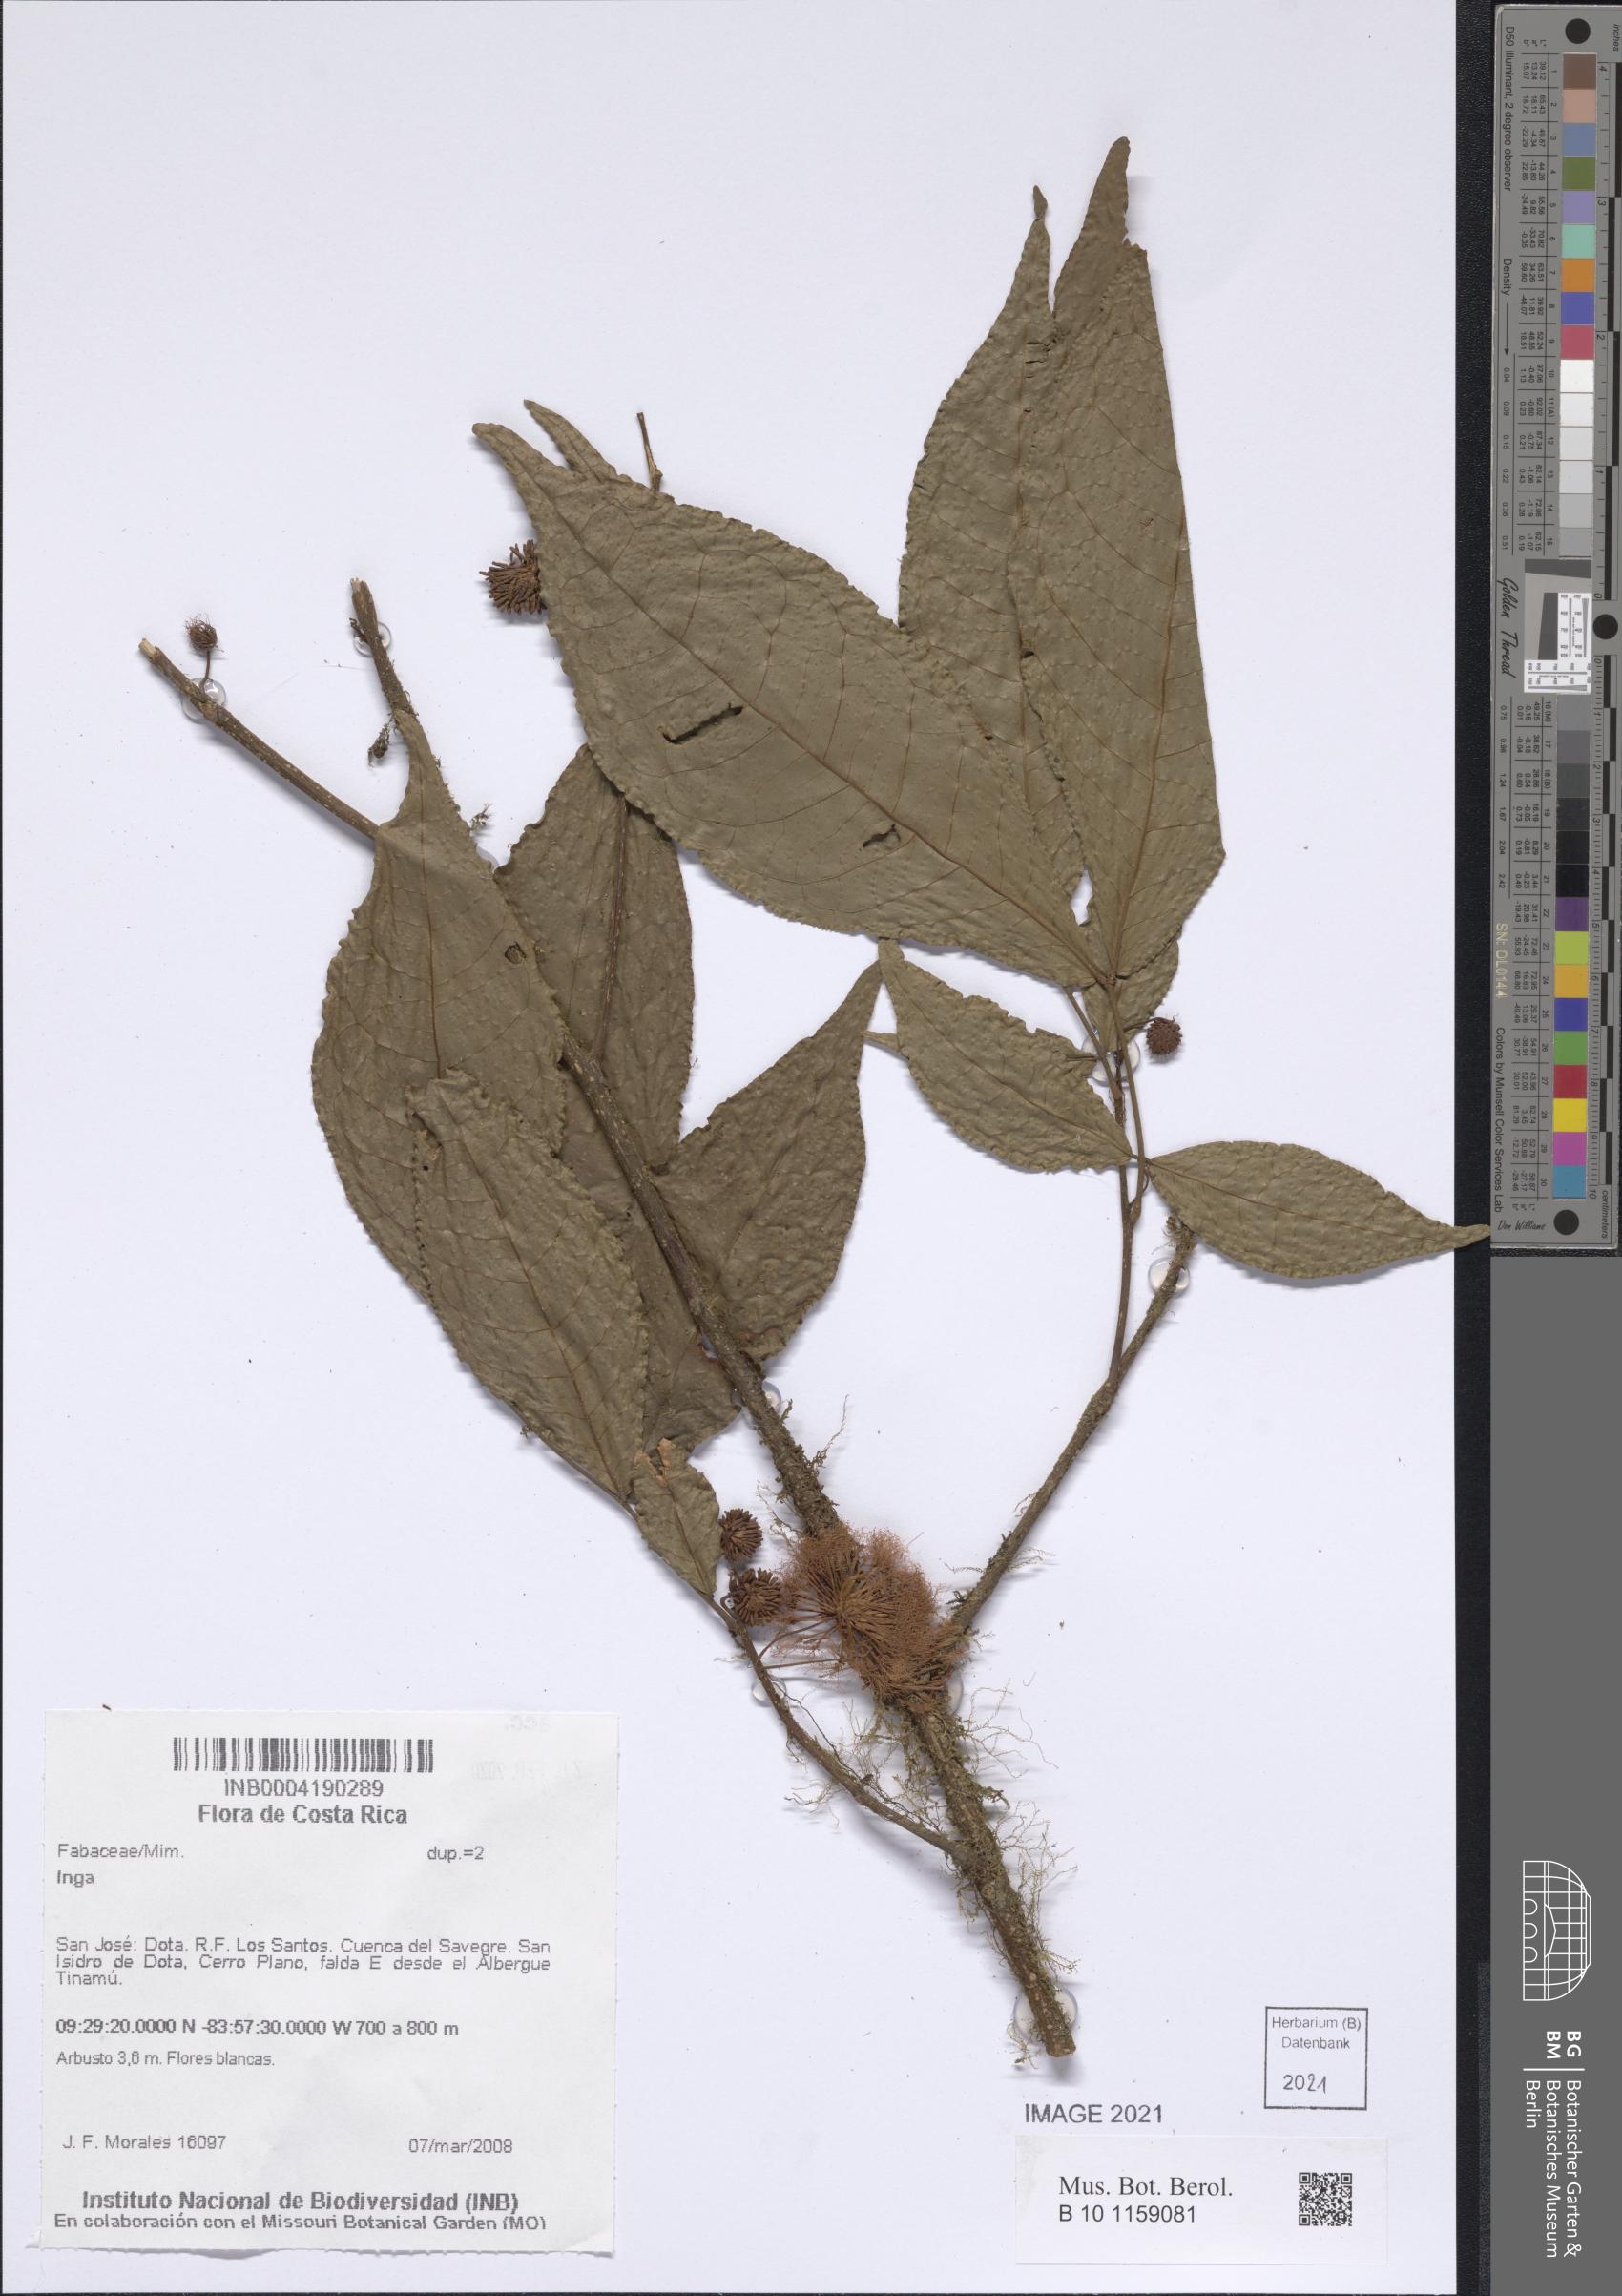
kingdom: Plantae
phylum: Tracheophyta
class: Magnoliopsida
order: Fabales
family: Fabaceae
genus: Inga
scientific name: Inga
